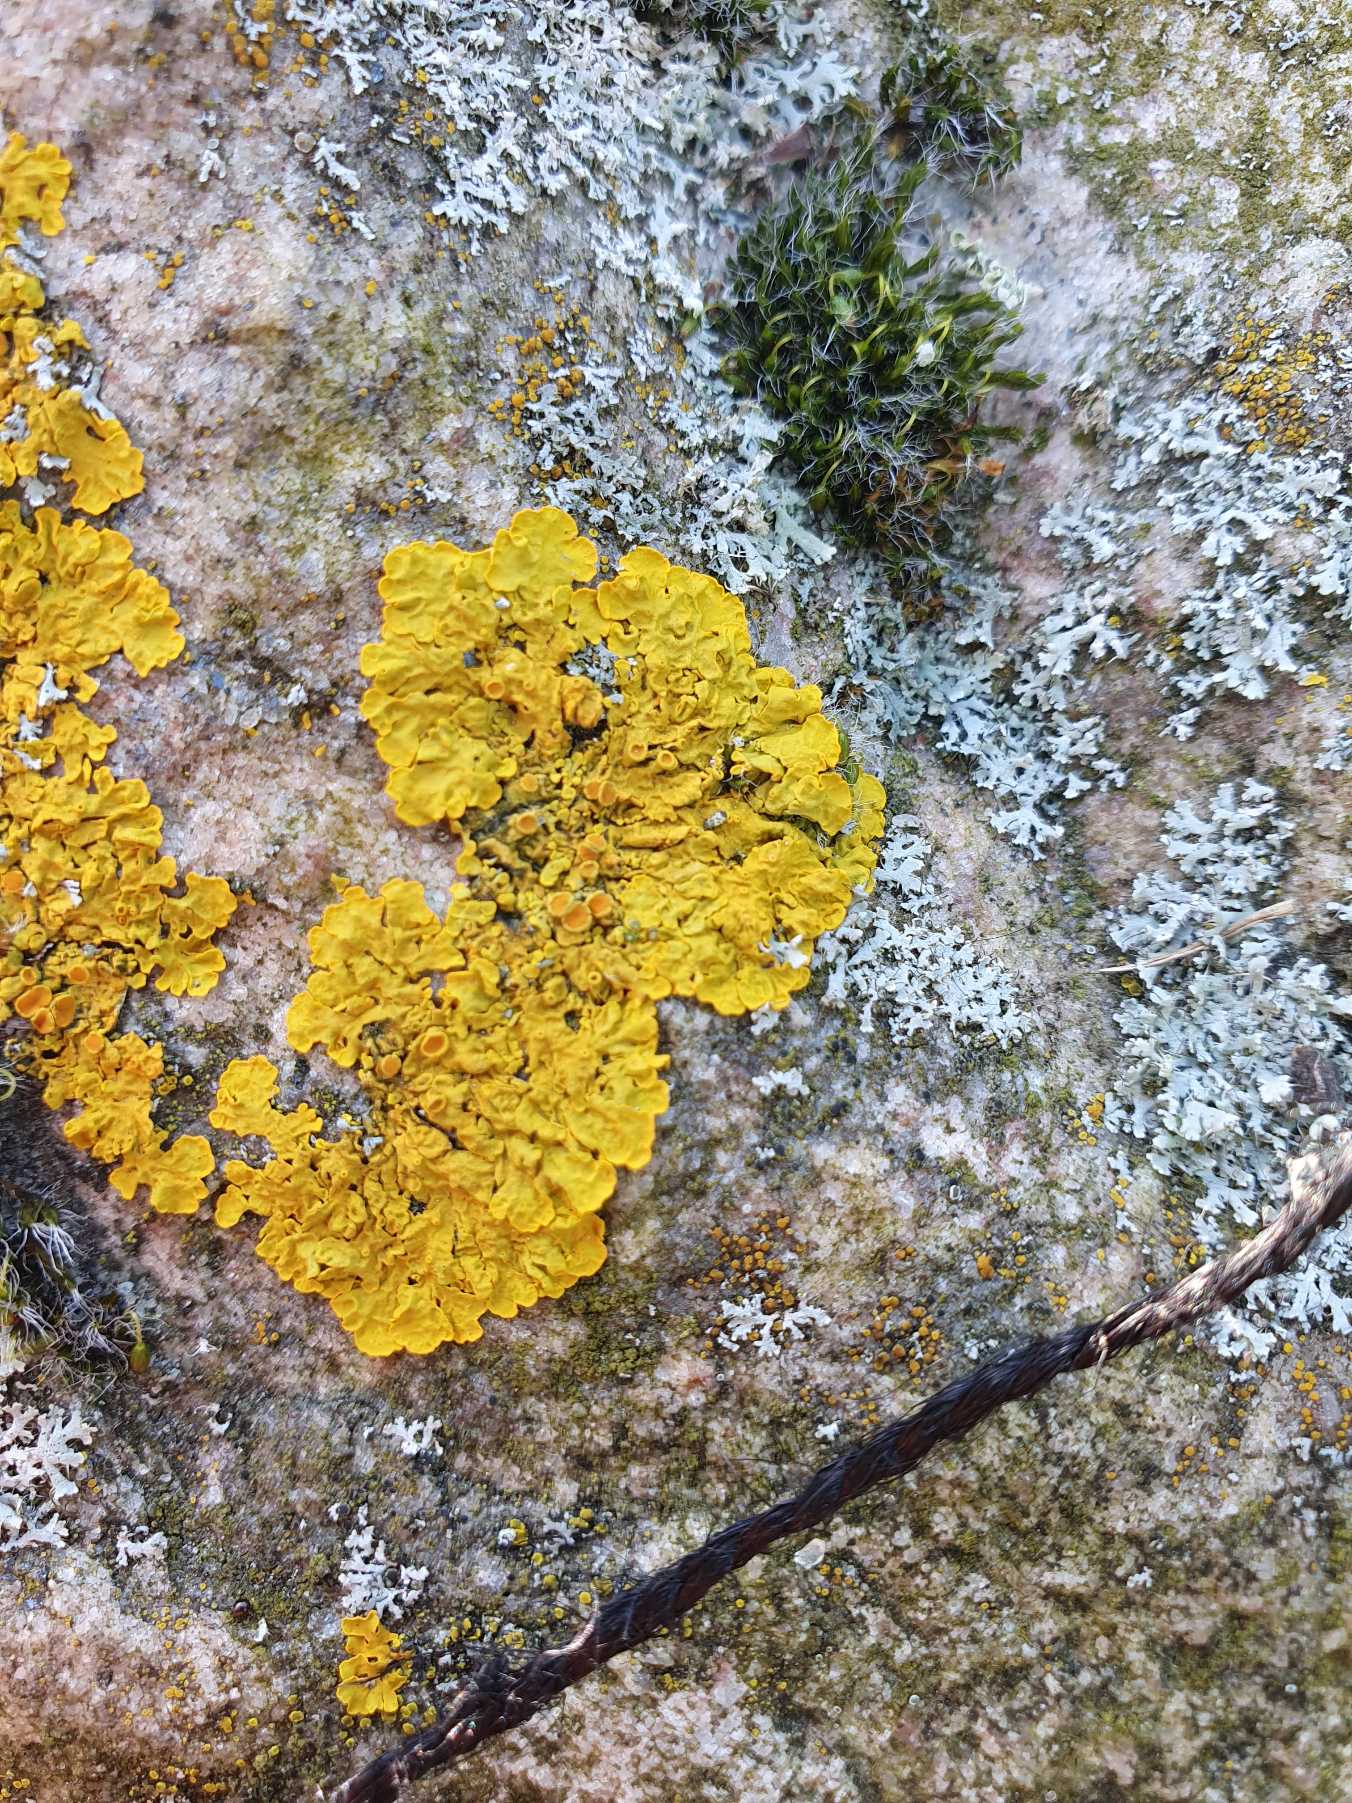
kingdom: Fungi
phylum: Ascomycota
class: Lecanoromycetes
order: Teloschistales
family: Teloschistaceae
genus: Xanthoria
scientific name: Xanthoria parietina
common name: Almindelig væggelav
